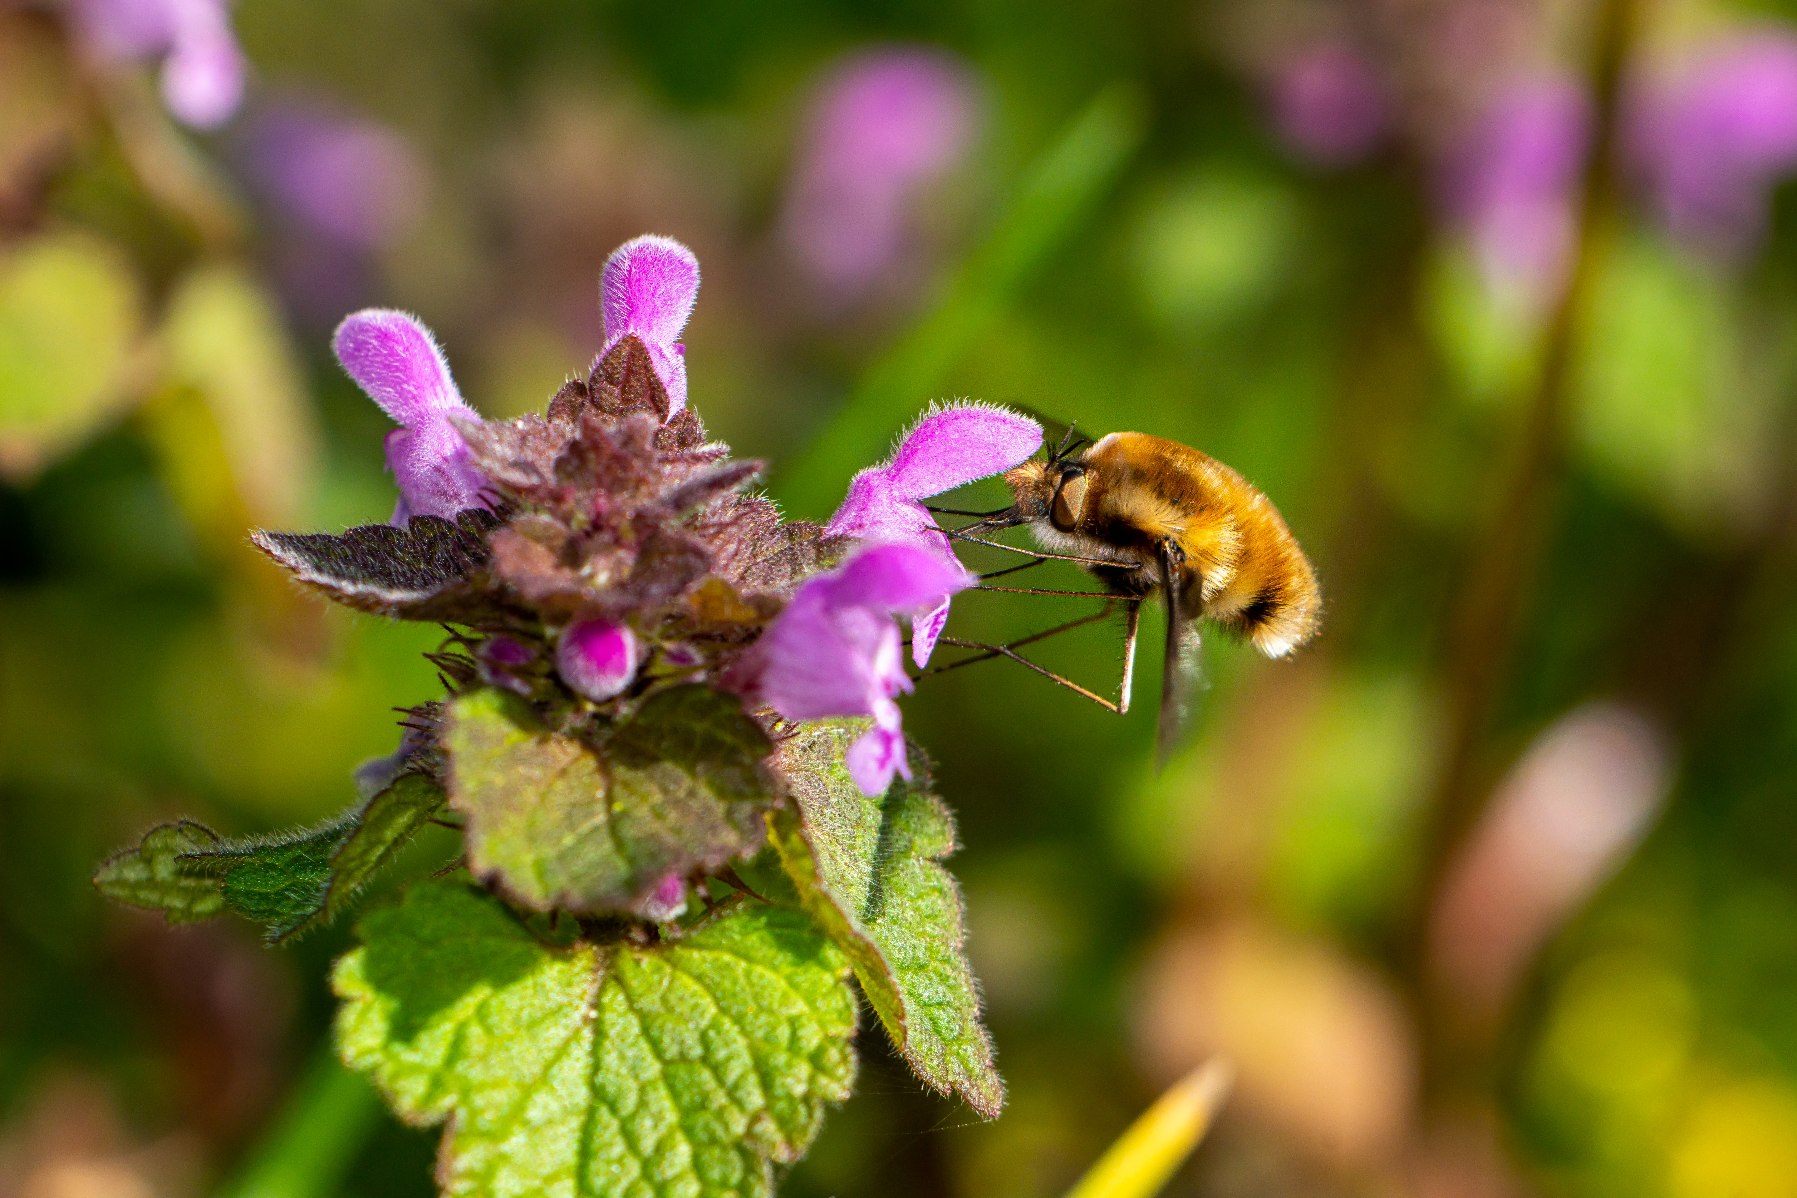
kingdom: Animalia
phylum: Arthropoda
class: Insecta
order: Diptera
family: Bombyliidae
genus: Bombylius
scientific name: Bombylius major
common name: Stor humleflue
